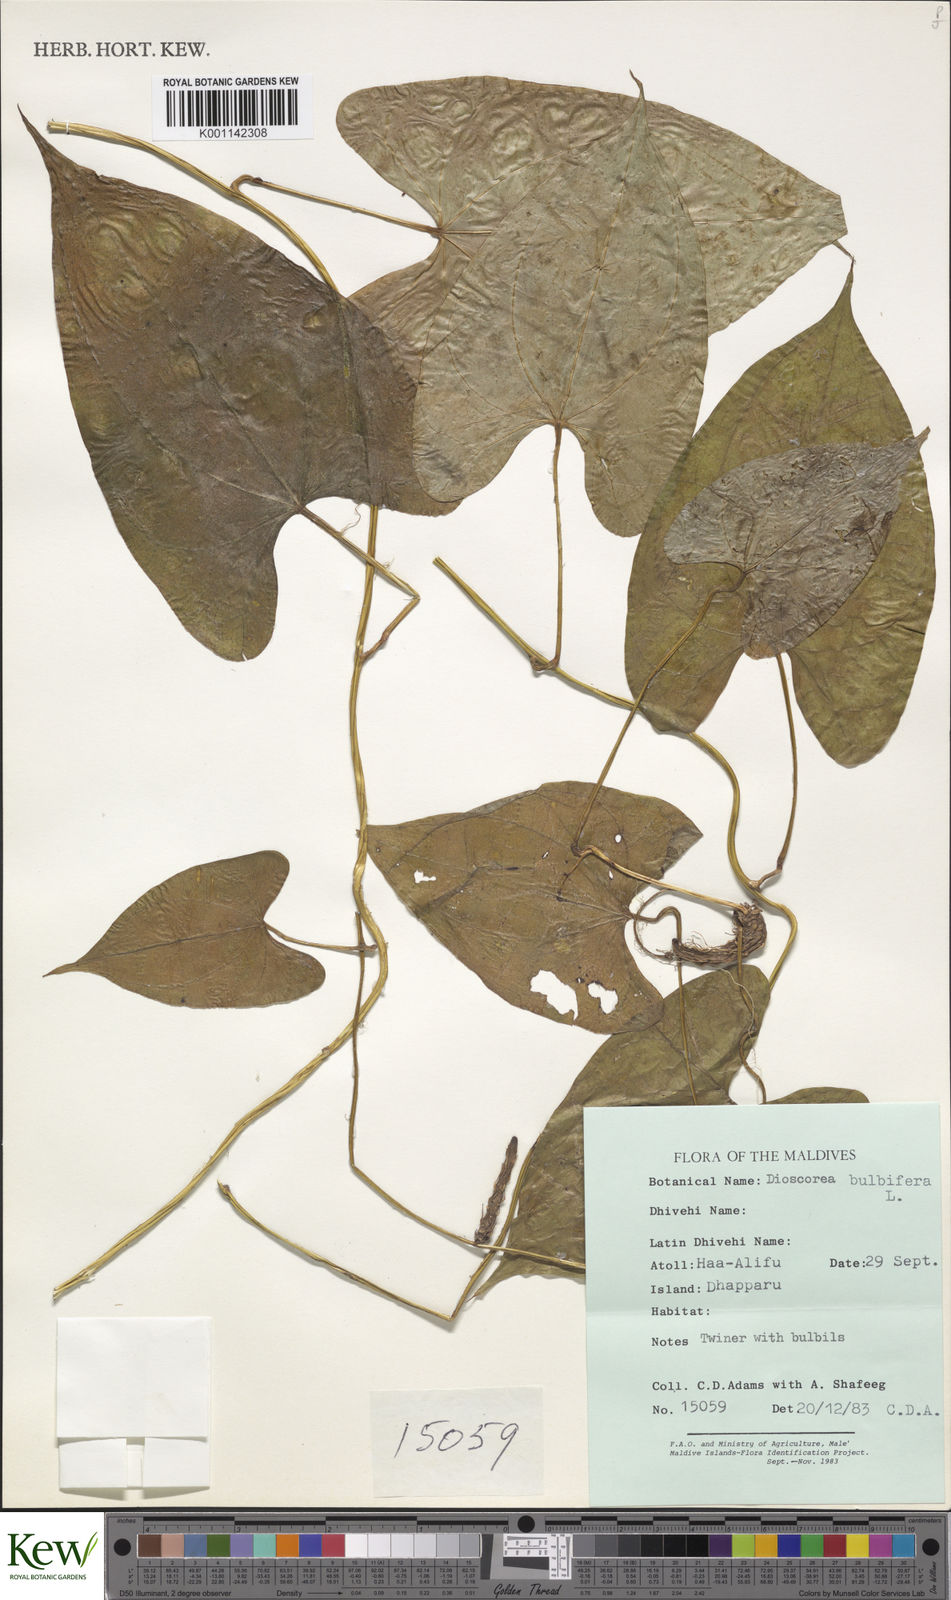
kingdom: Plantae
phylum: Tracheophyta
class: Liliopsida
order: Dioscoreales
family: Dioscoreaceae
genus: Dioscorea
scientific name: Dioscorea bulbifera
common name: Air yam
